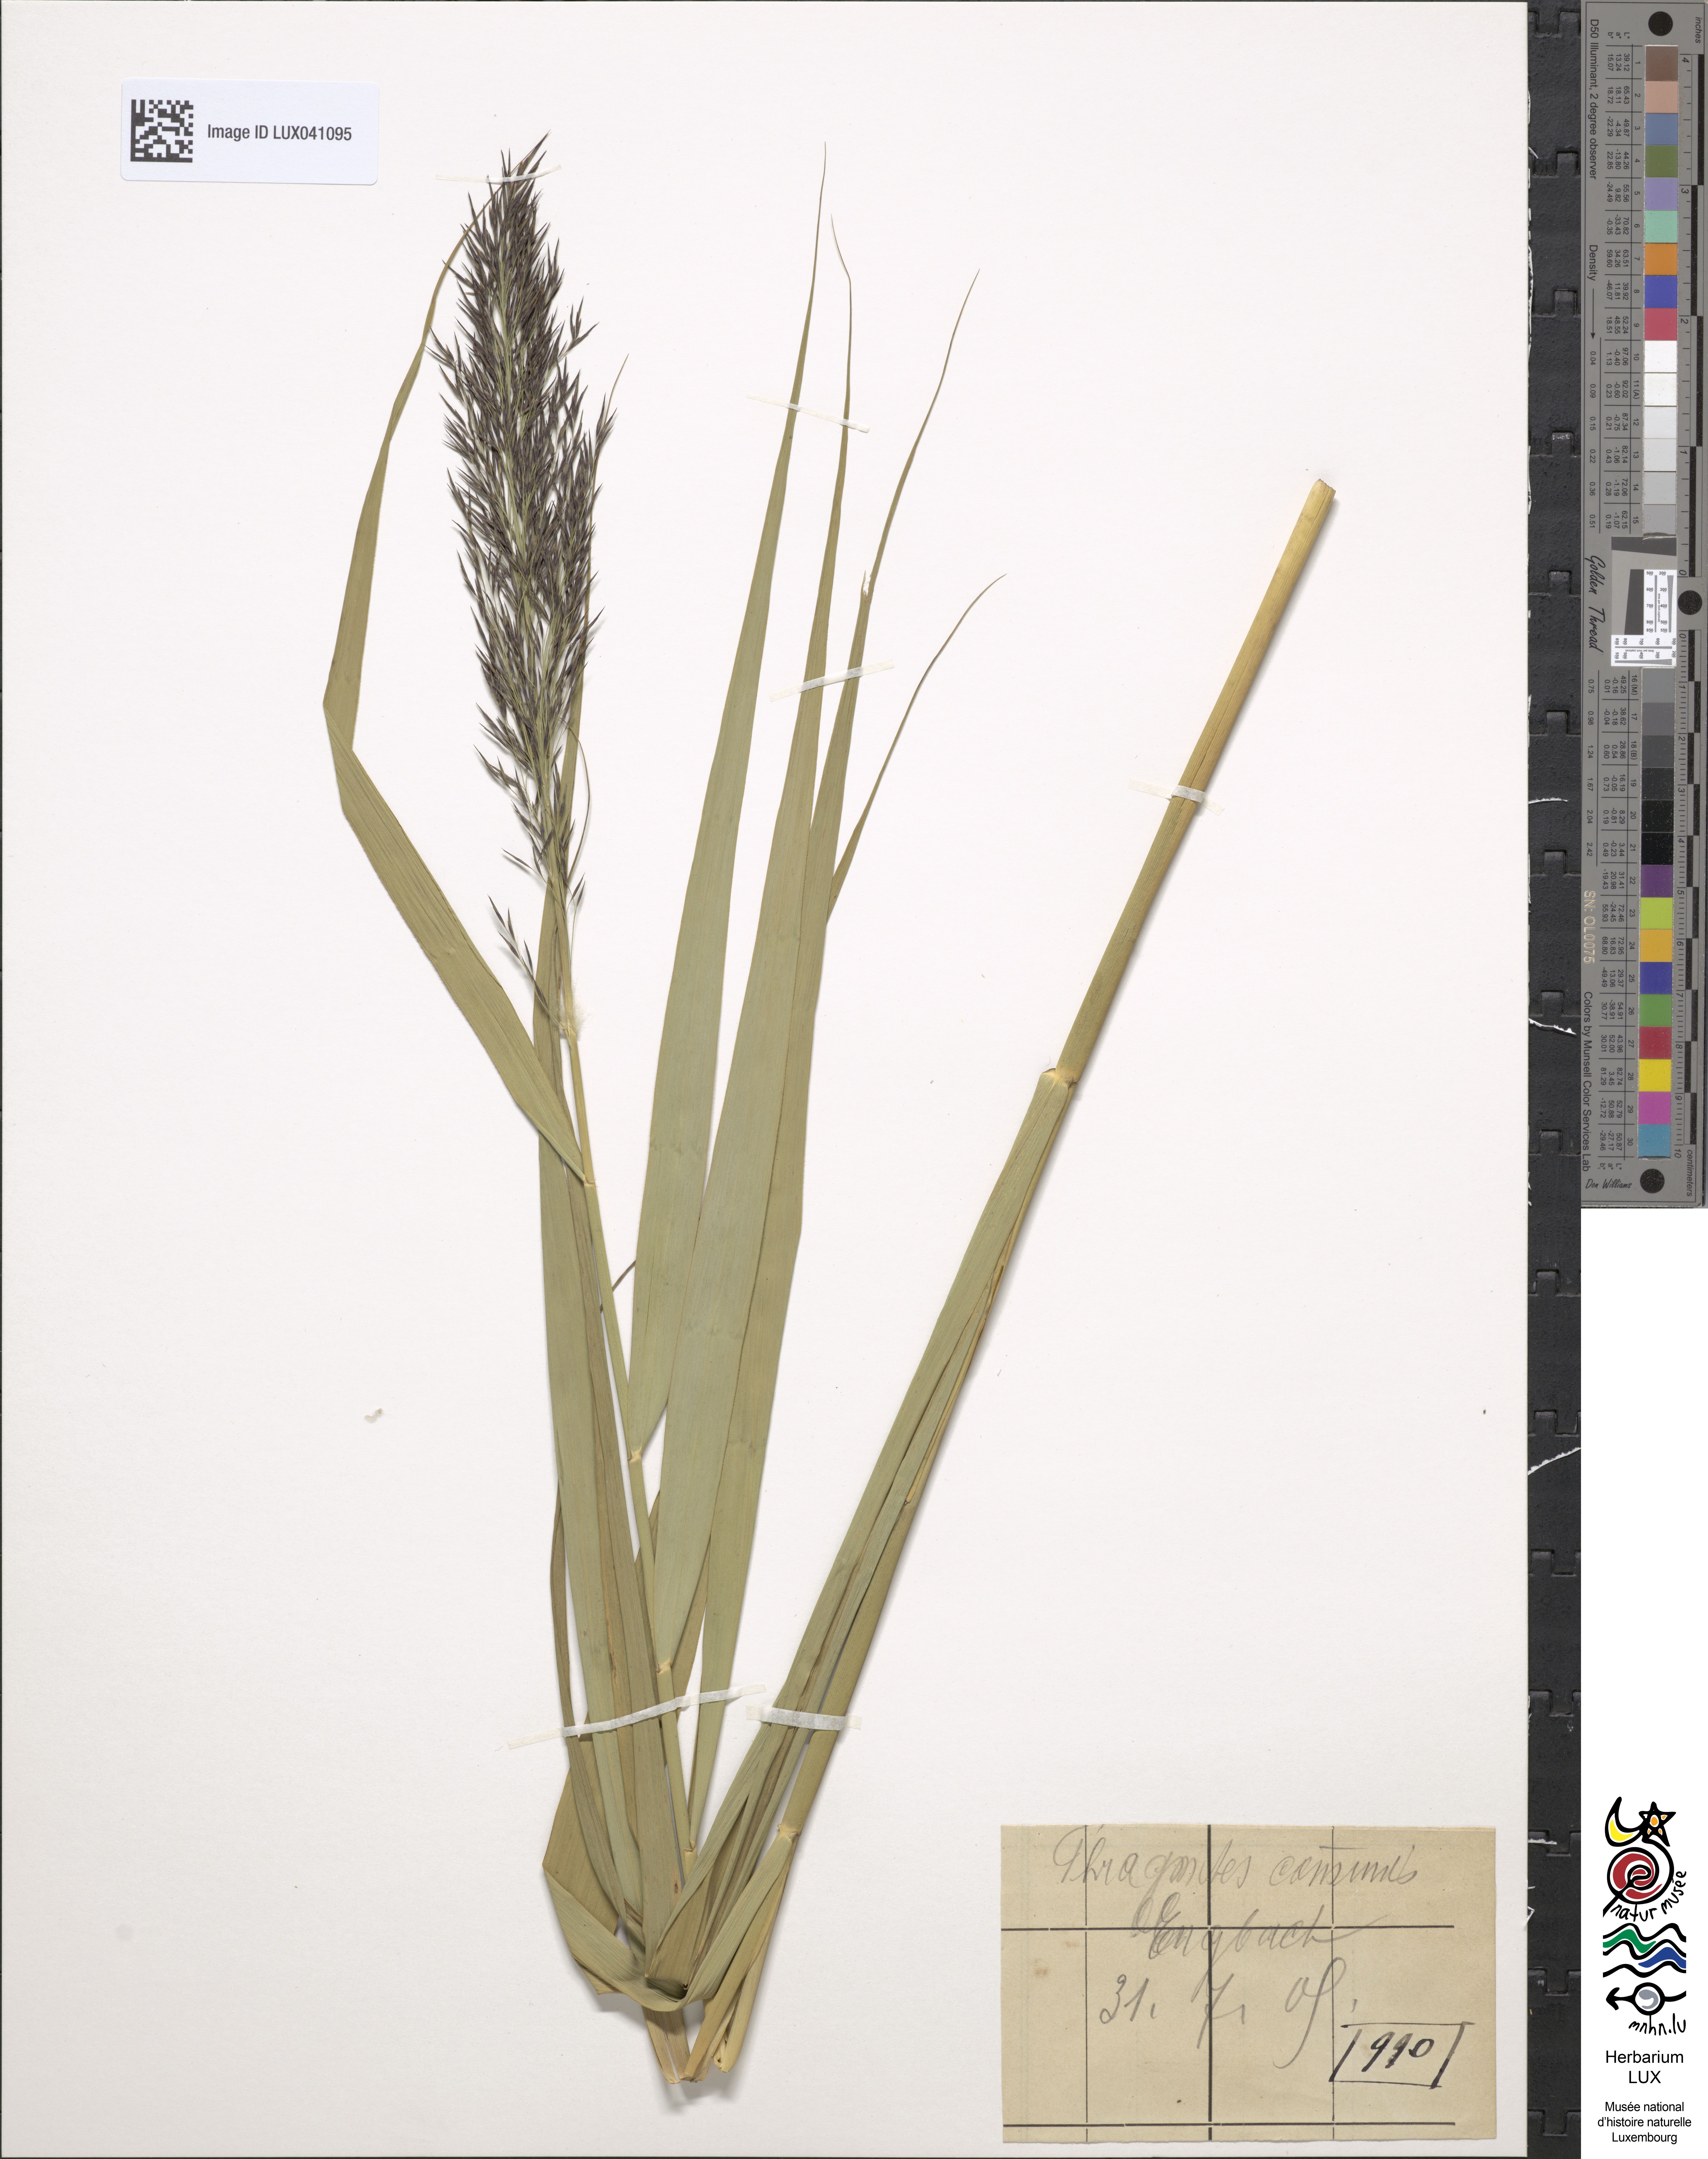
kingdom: Plantae
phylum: Tracheophyta
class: Liliopsida
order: Poales
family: Poaceae
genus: Phragmites
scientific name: Phragmites australis
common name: Common reed
